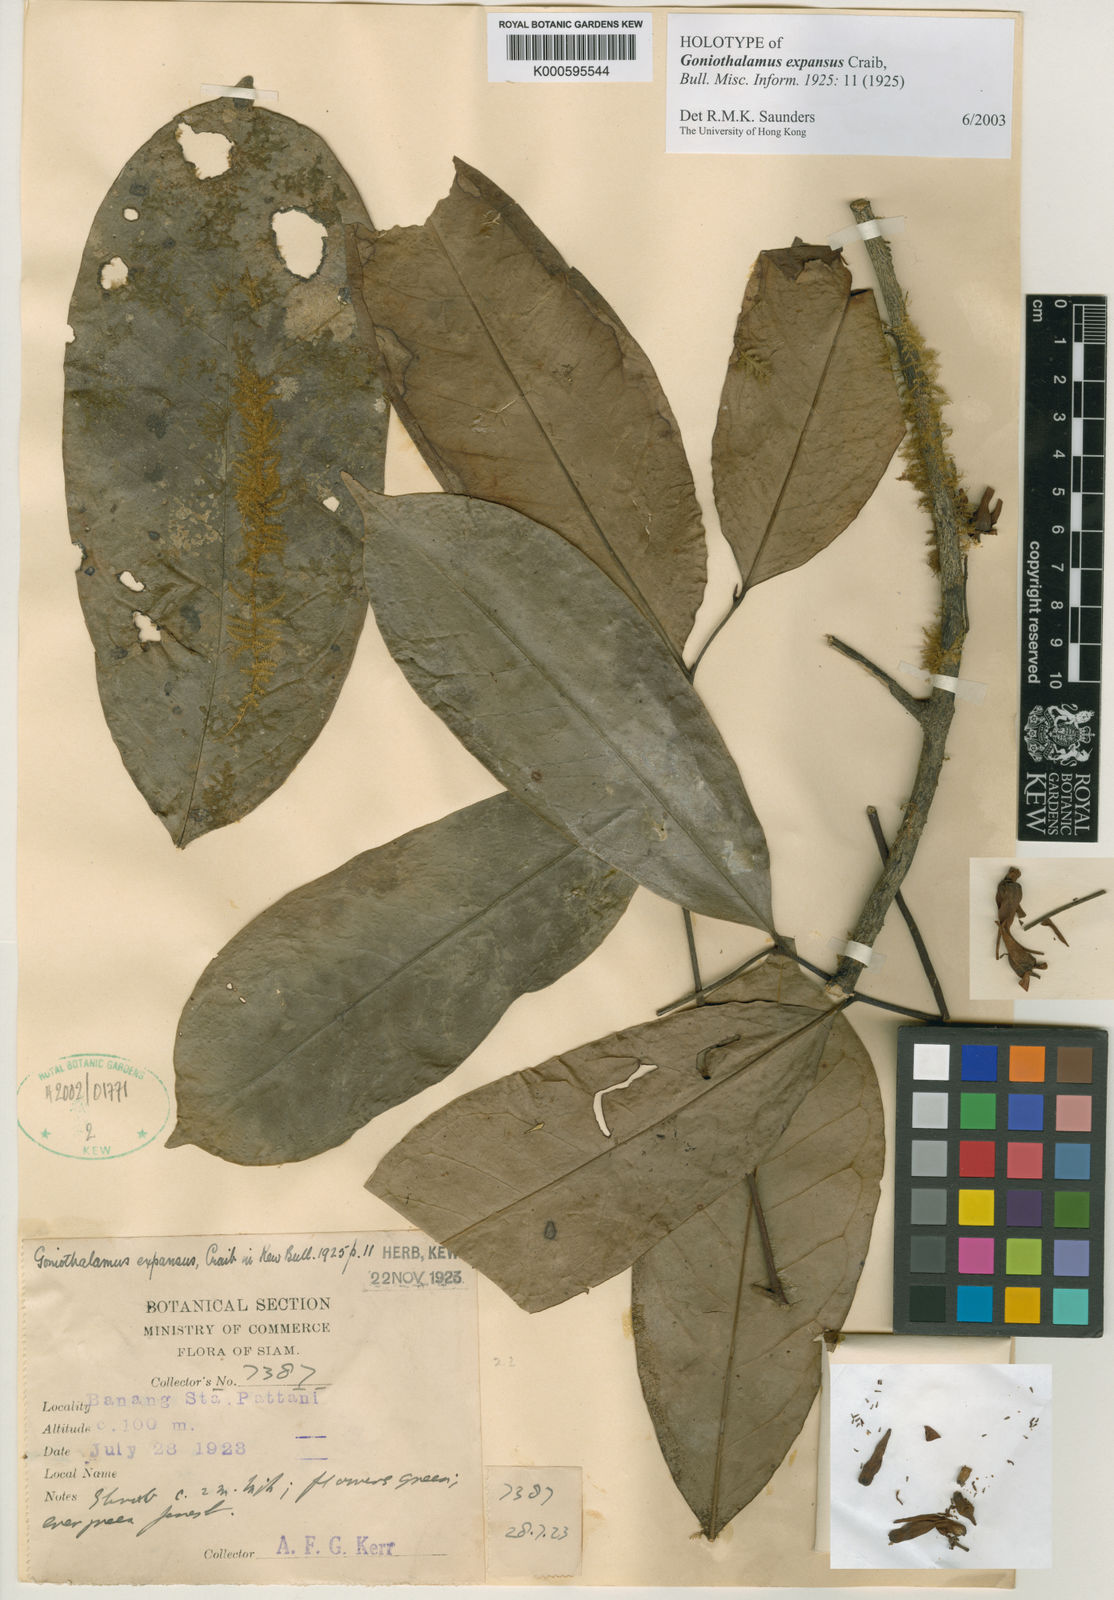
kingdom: Plantae
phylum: Tracheophyta
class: Magnoliopsida
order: Magnoliales
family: Annonaceae
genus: Goniothalamus
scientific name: Goniothalamus expansus
